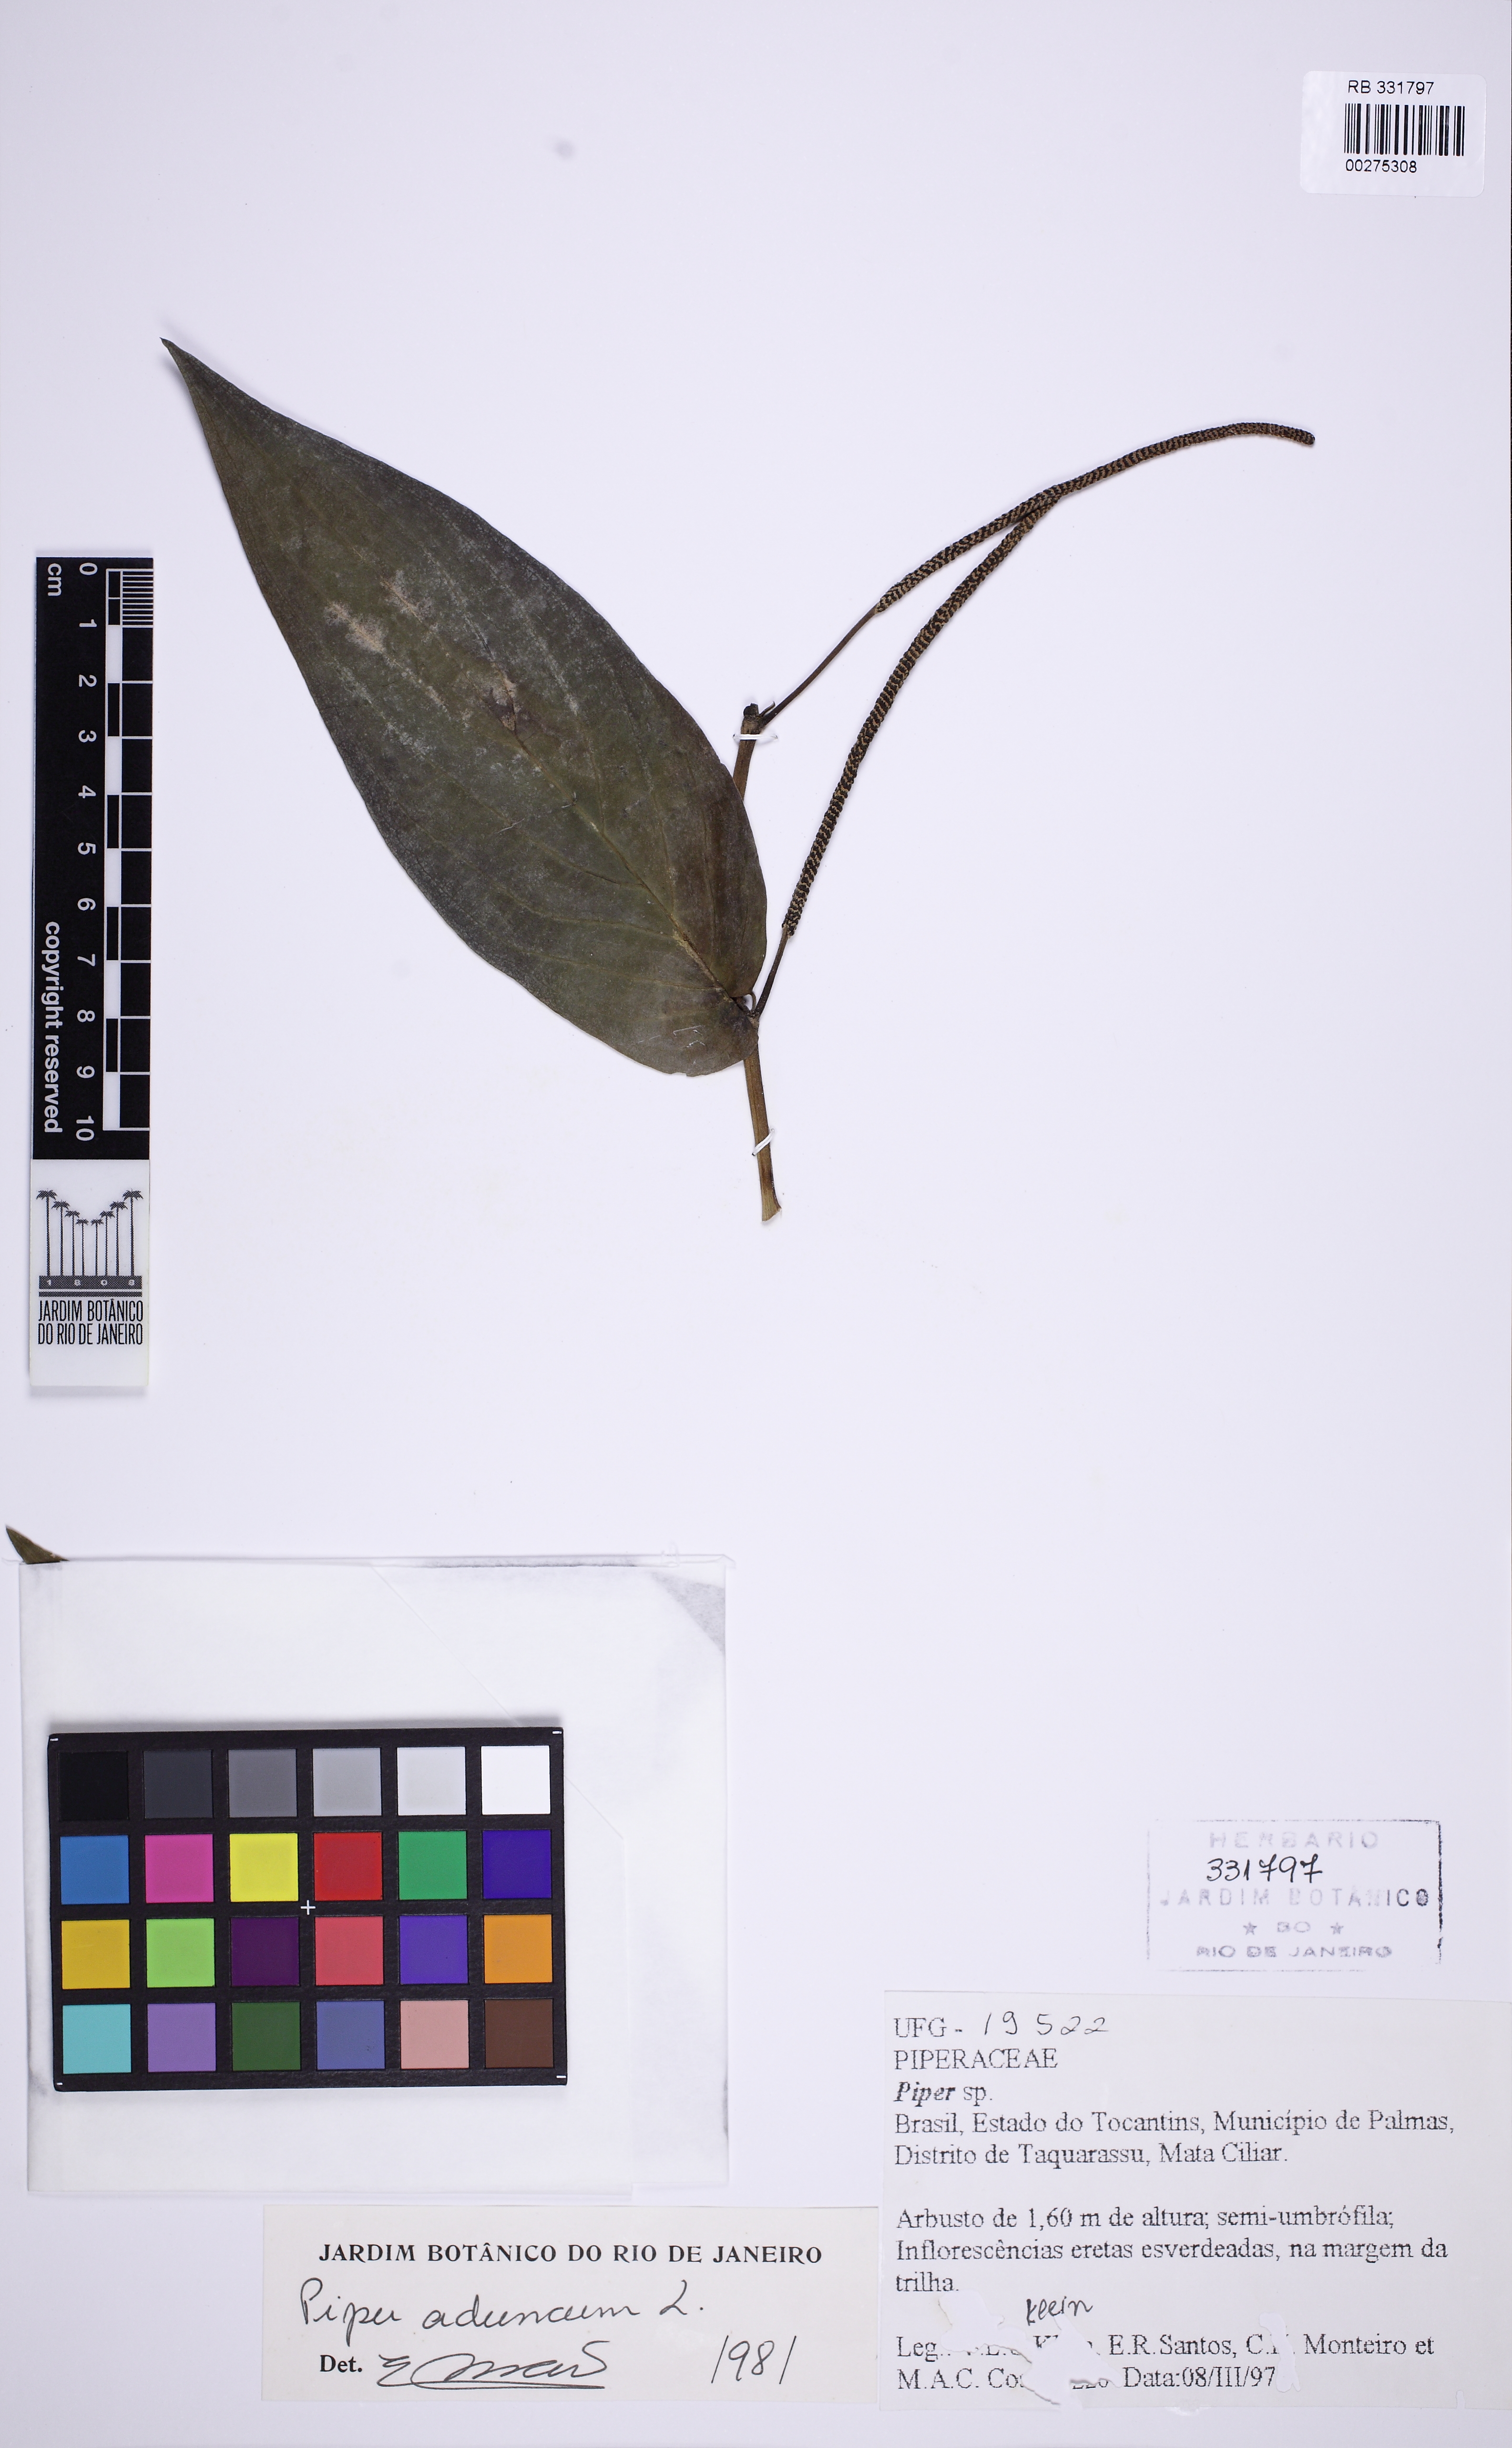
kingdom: Plantae
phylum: Tracheophyta
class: Magnoliopsida
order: Piperales
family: Piperaceae
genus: Piper
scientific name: Piper aduncum
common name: Spiked pepper
